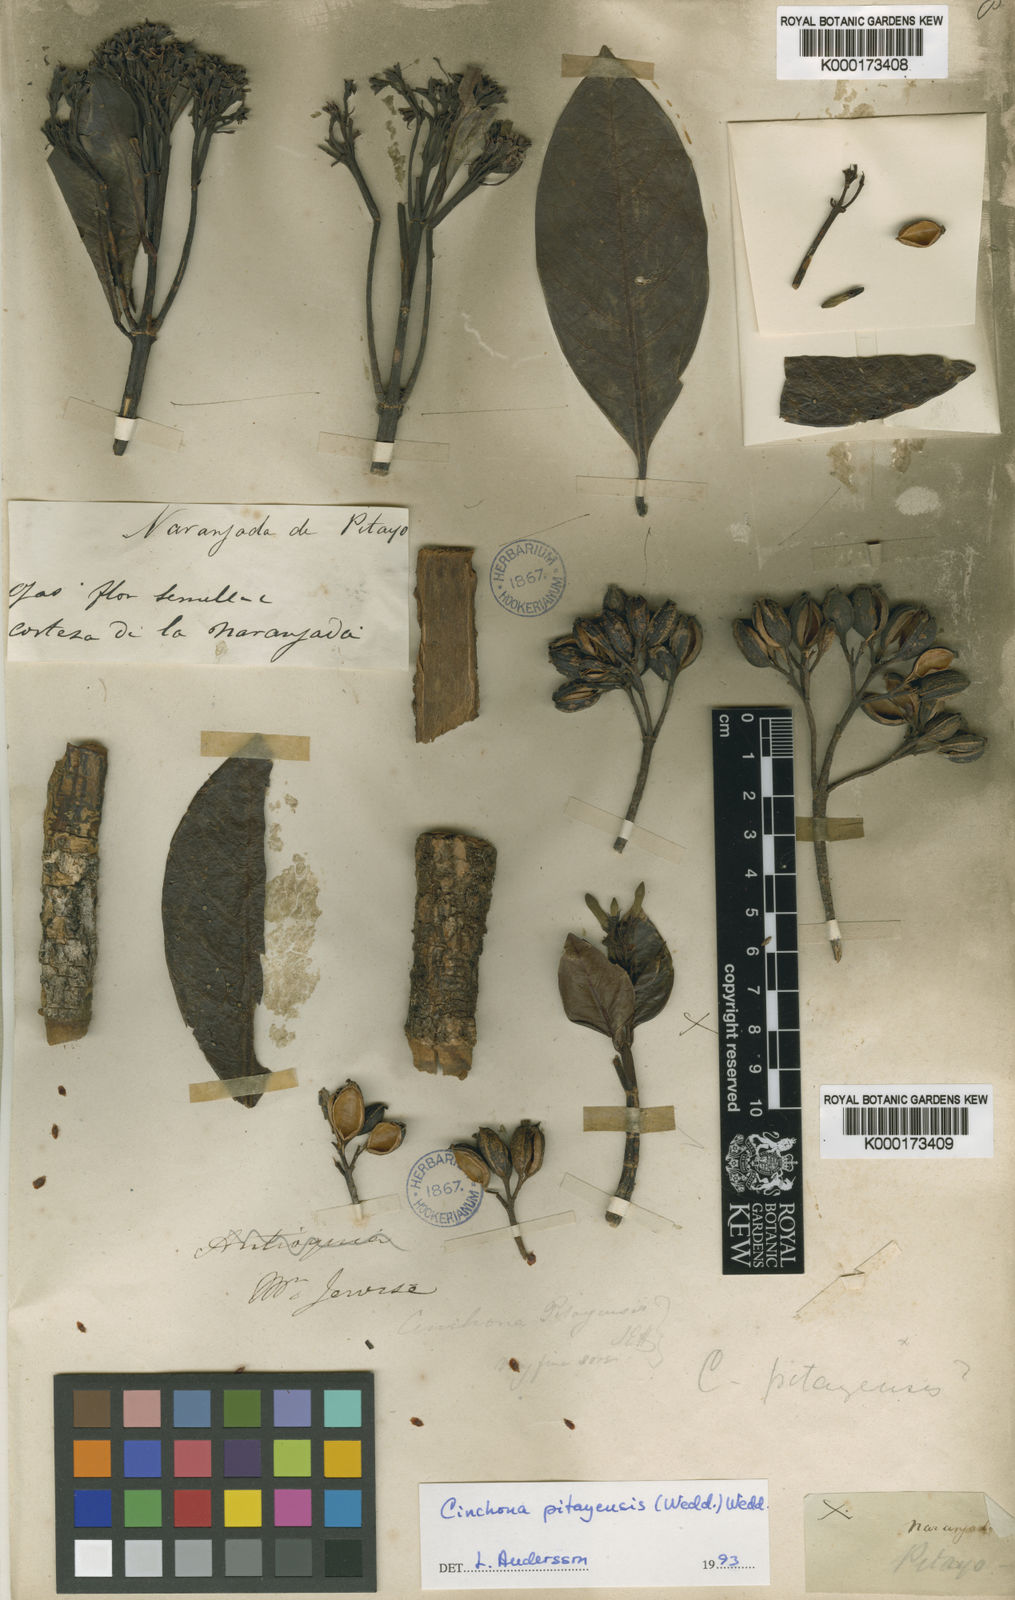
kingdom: Plantae
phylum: Tracheophyta
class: Magnoliopsida
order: Gentianales
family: Rubiaceae
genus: Cinchona
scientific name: Cinchona pitayensis
